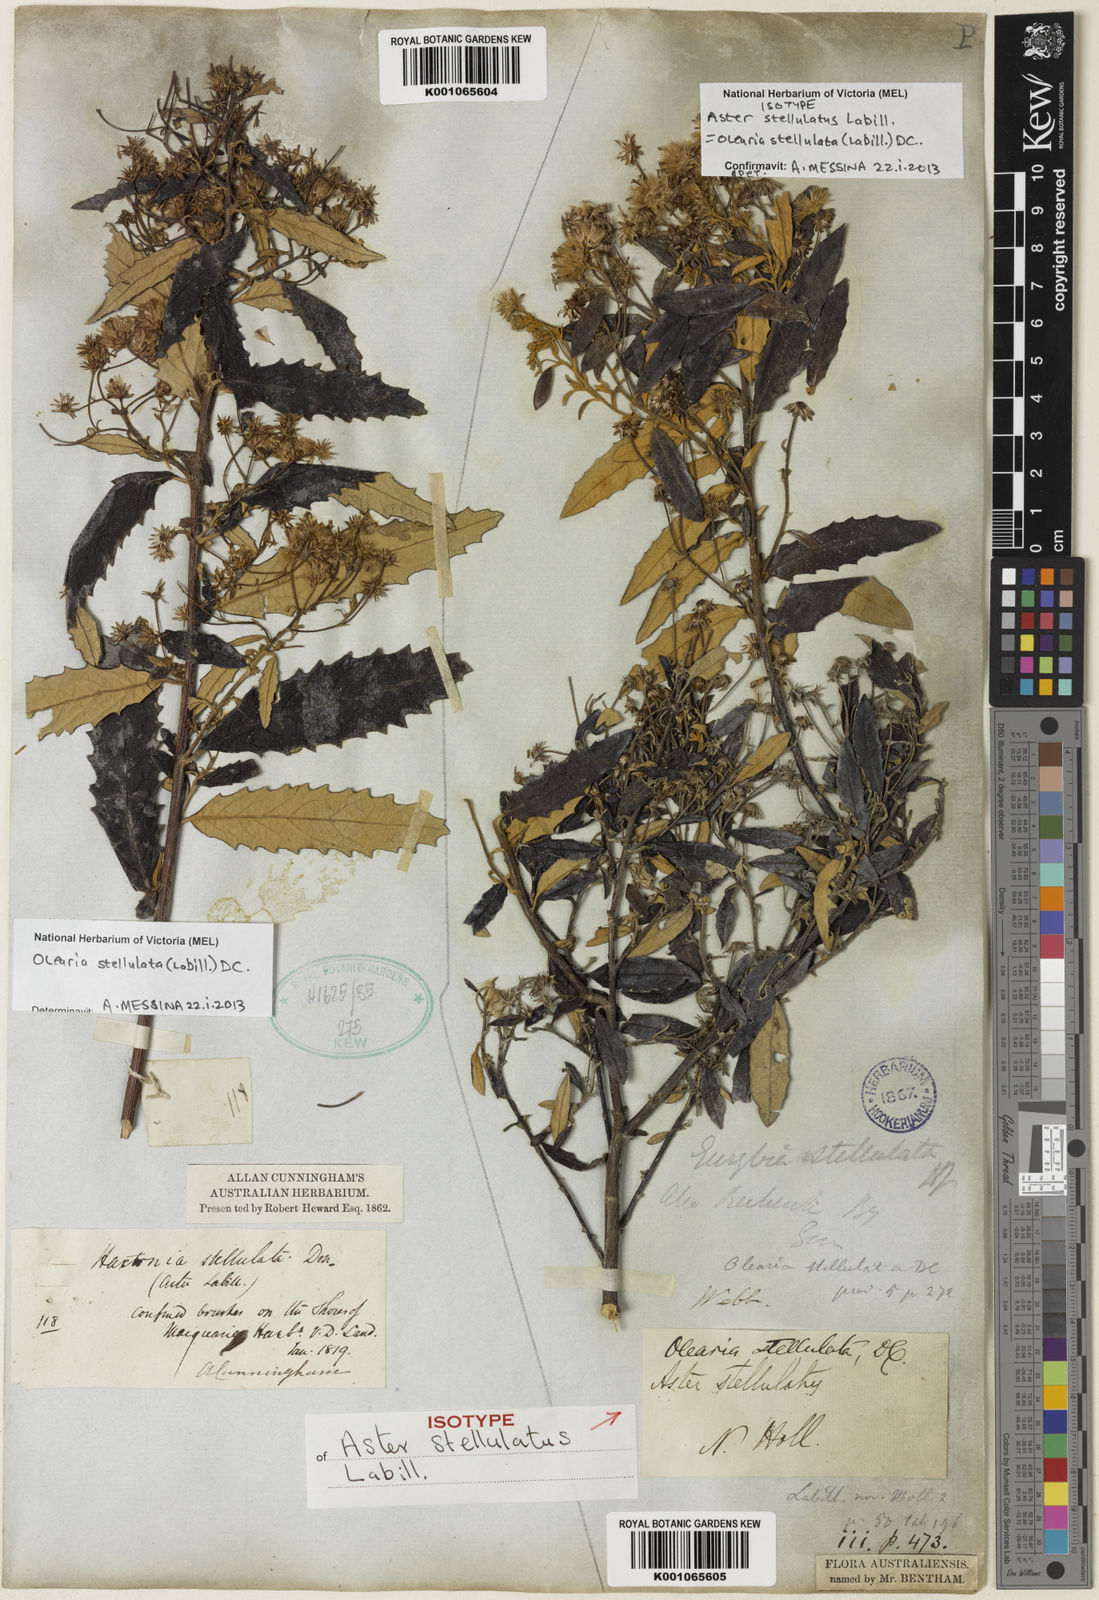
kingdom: Plantae
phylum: Tracheophyta
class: Magnoliopsida
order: Asterales
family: Asteraceae
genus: Olearia
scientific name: Olearia stellulata
